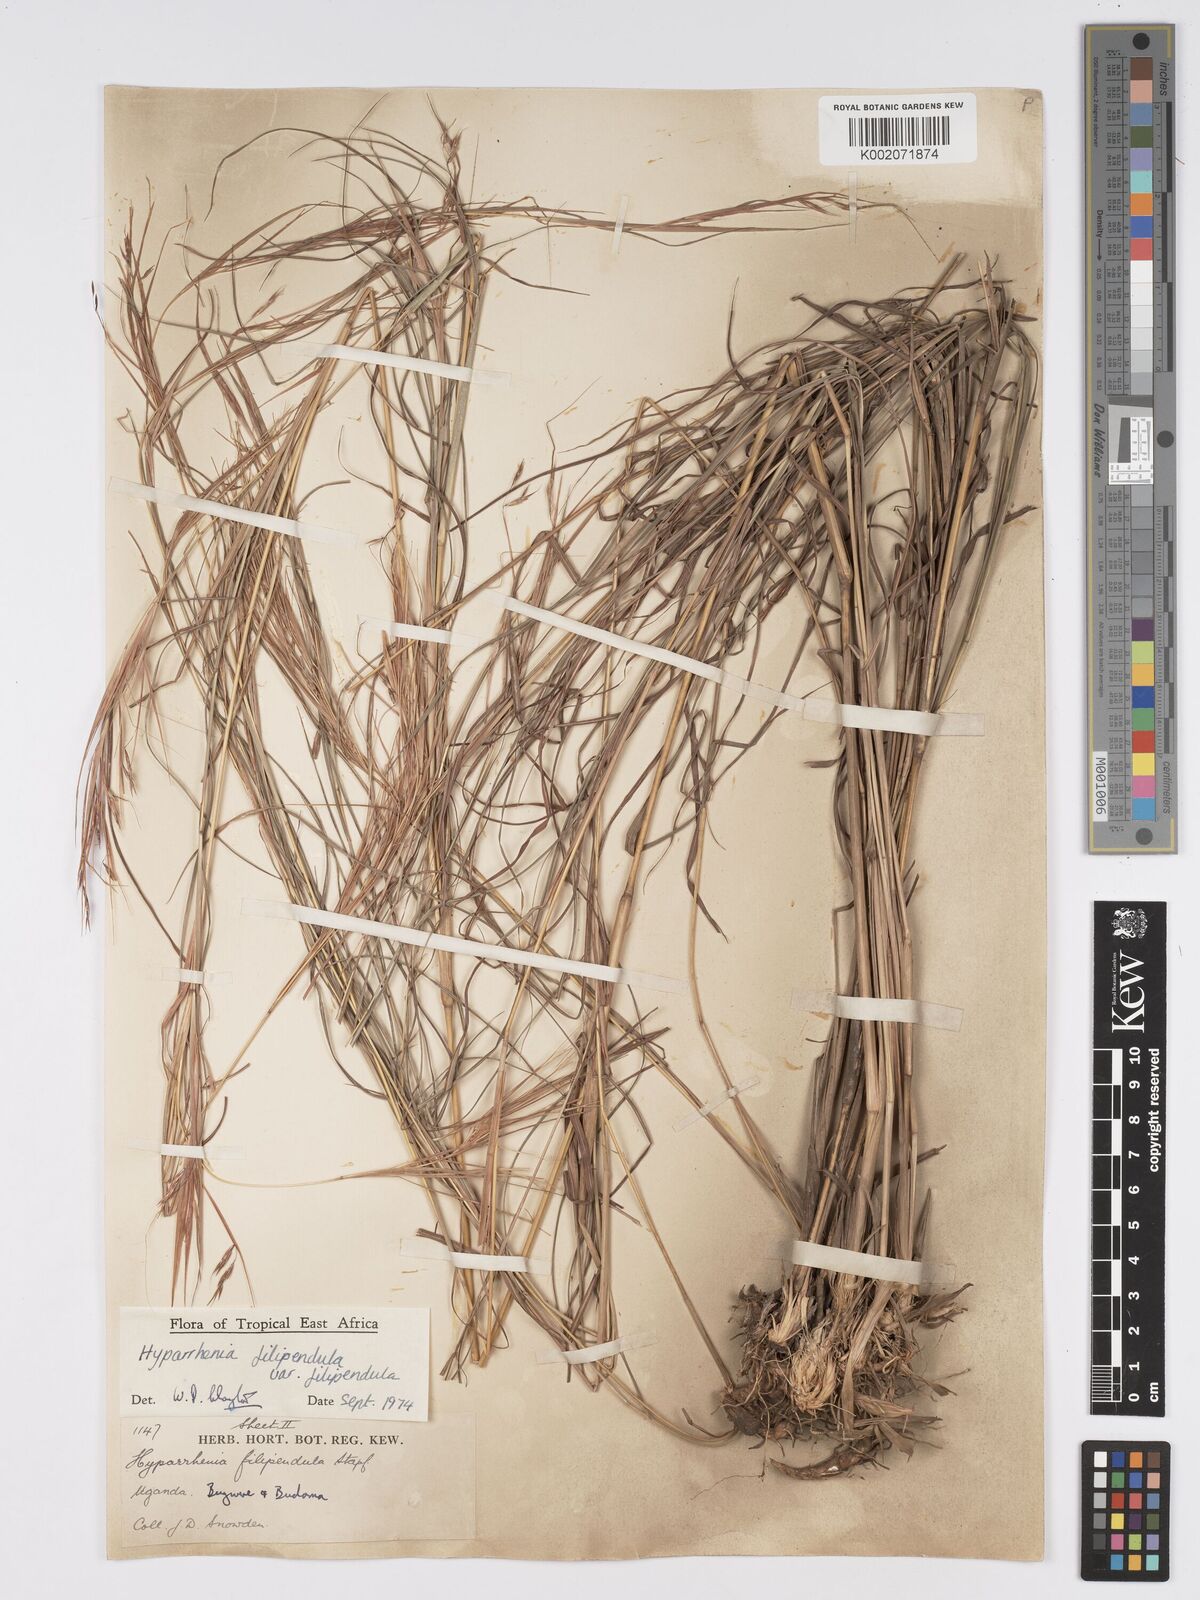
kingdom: Plantae
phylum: Tracheophyta
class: Liliopsida
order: Poales
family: Poaceae
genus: Hyparrhenia
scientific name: Hyparrhenia filipendula
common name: Tambookie grass
